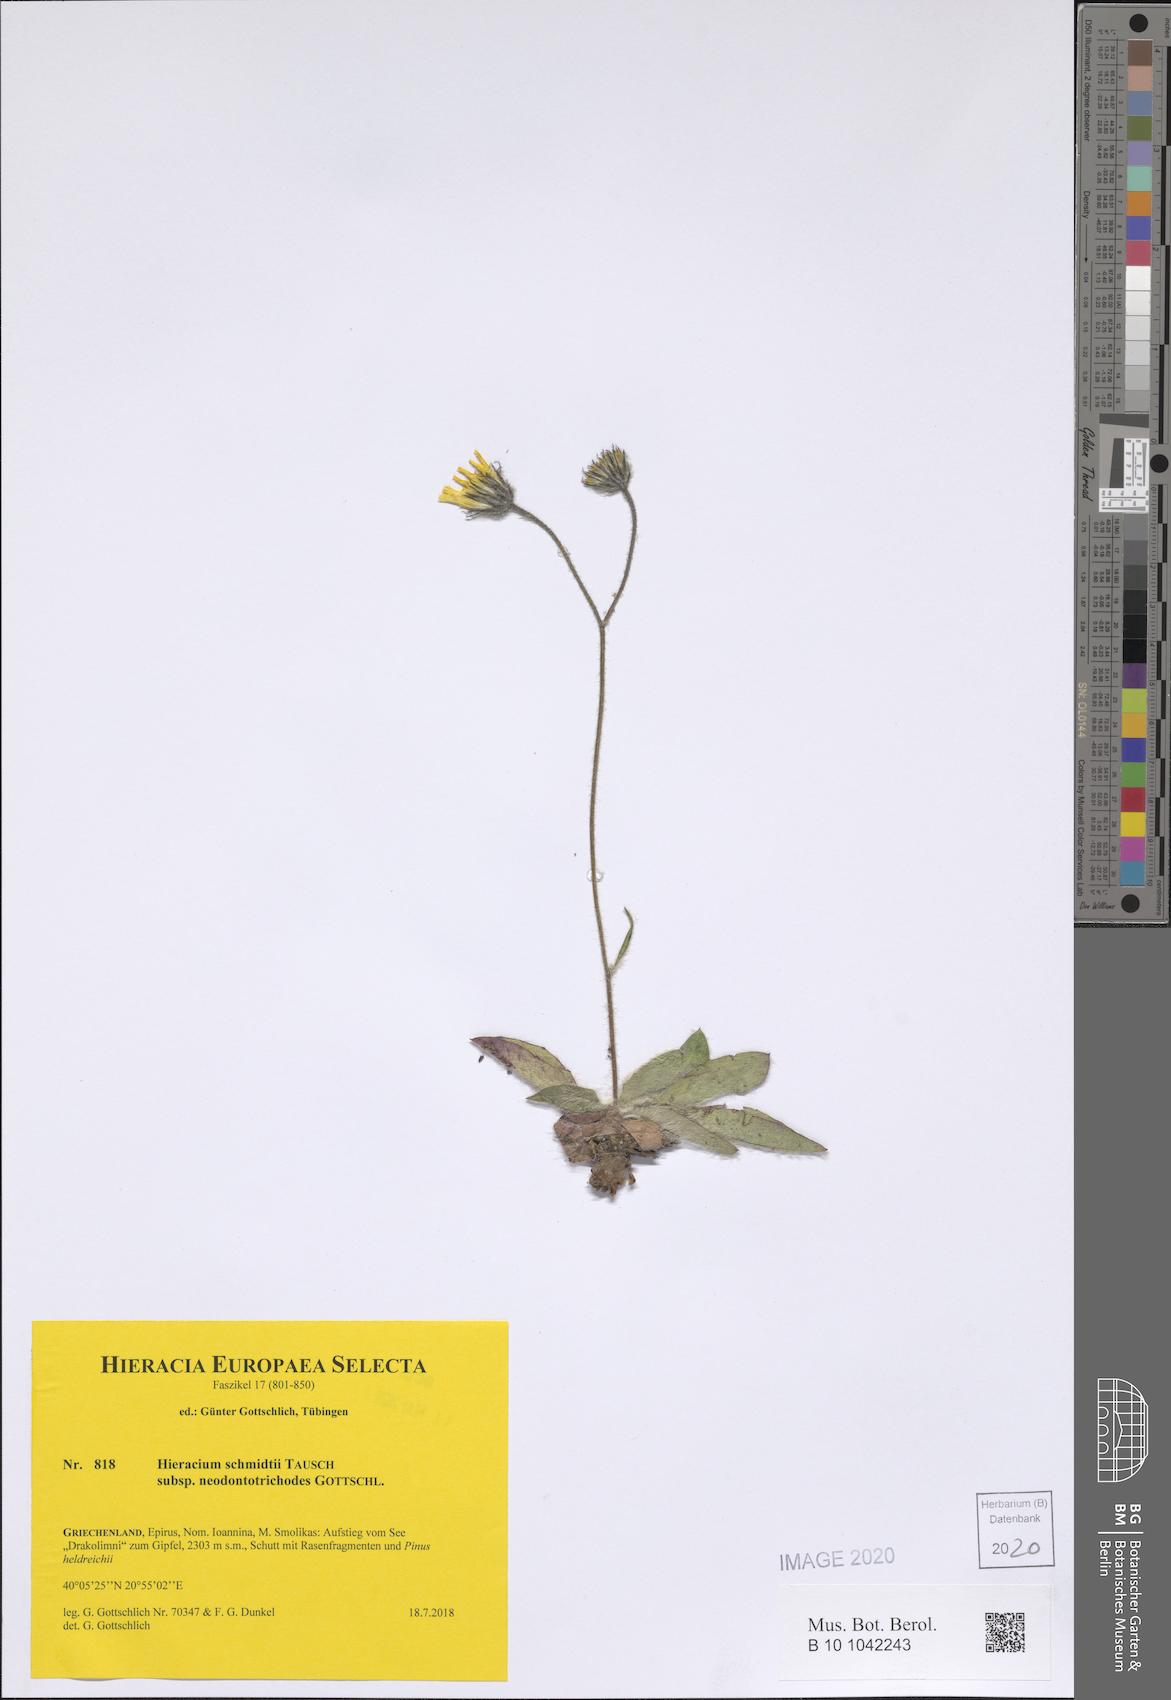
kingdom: Plantae
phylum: Tracheophyta
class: Magnoliopsida
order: Asterales
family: Asteraceae
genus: Hieracium
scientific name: Hieracium schmidtii
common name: Schmidt's hawkweed
